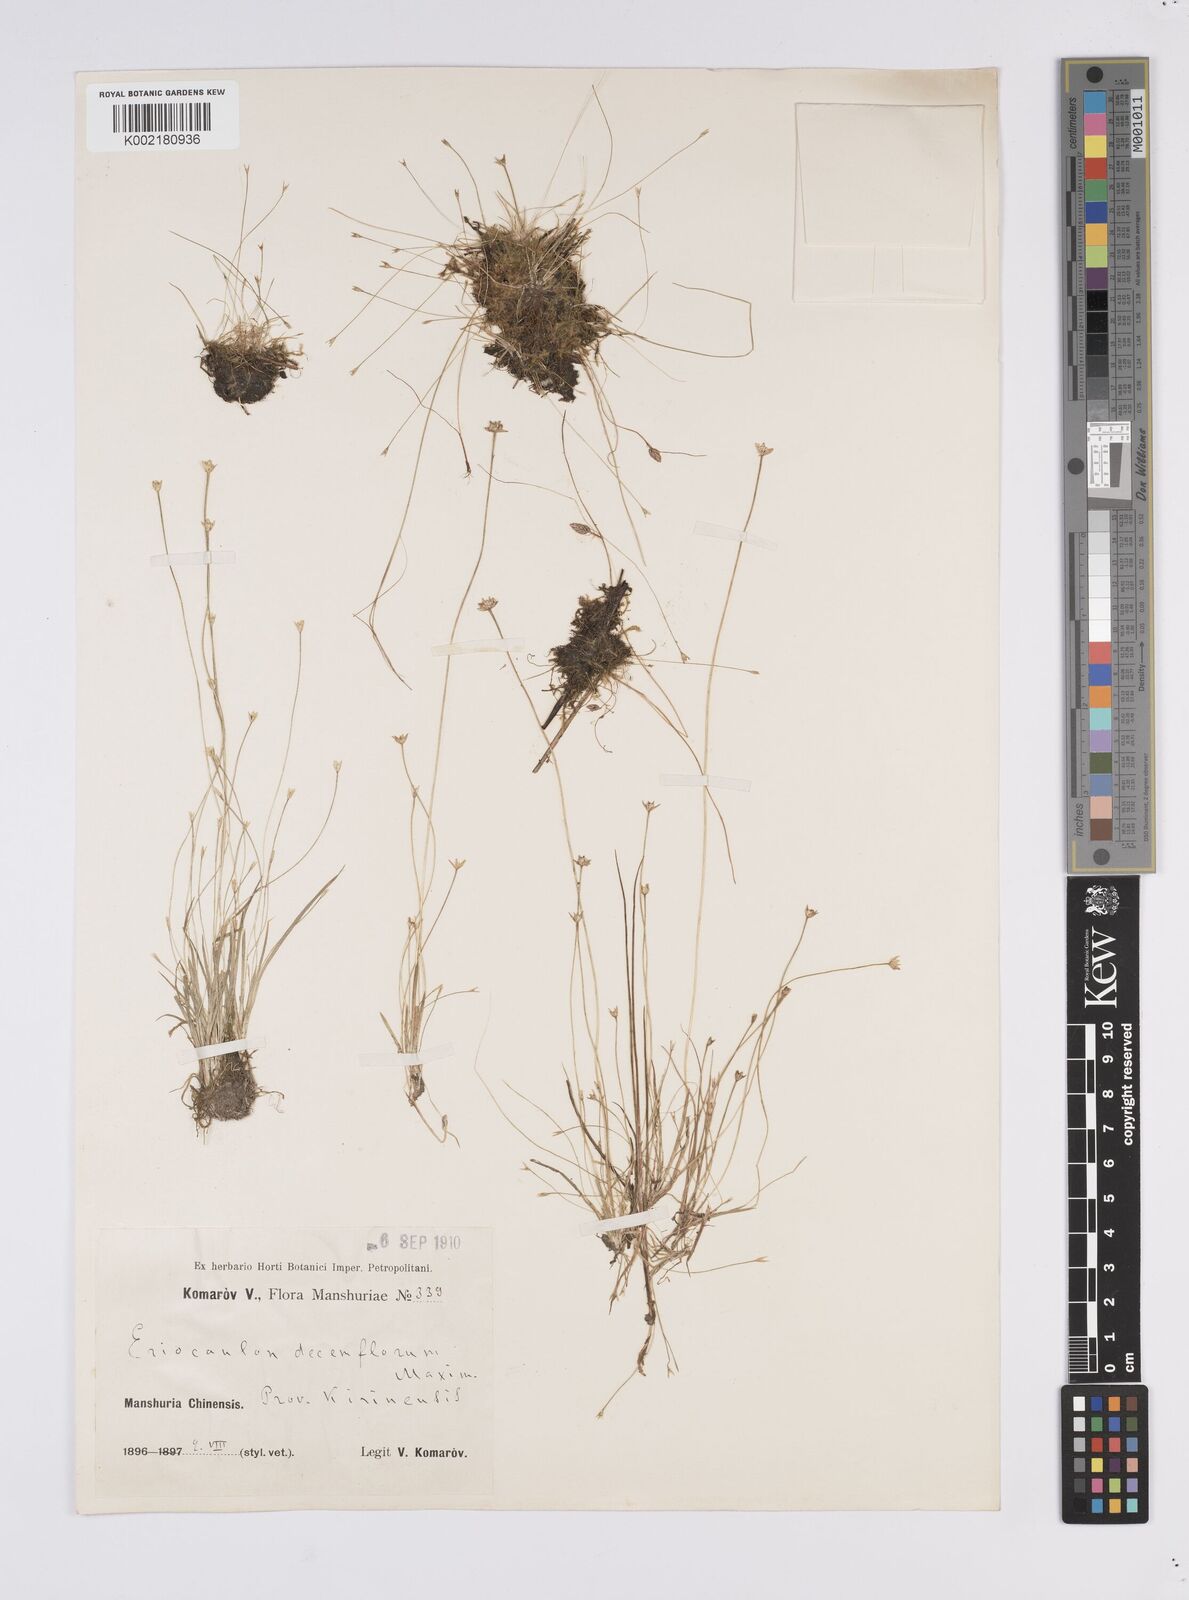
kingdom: Plantae
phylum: Tracheophyta
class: Liliopsida
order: Poales
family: Eriocaulaceae
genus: Eriocaulon
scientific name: Eriocaulon decemflorum
